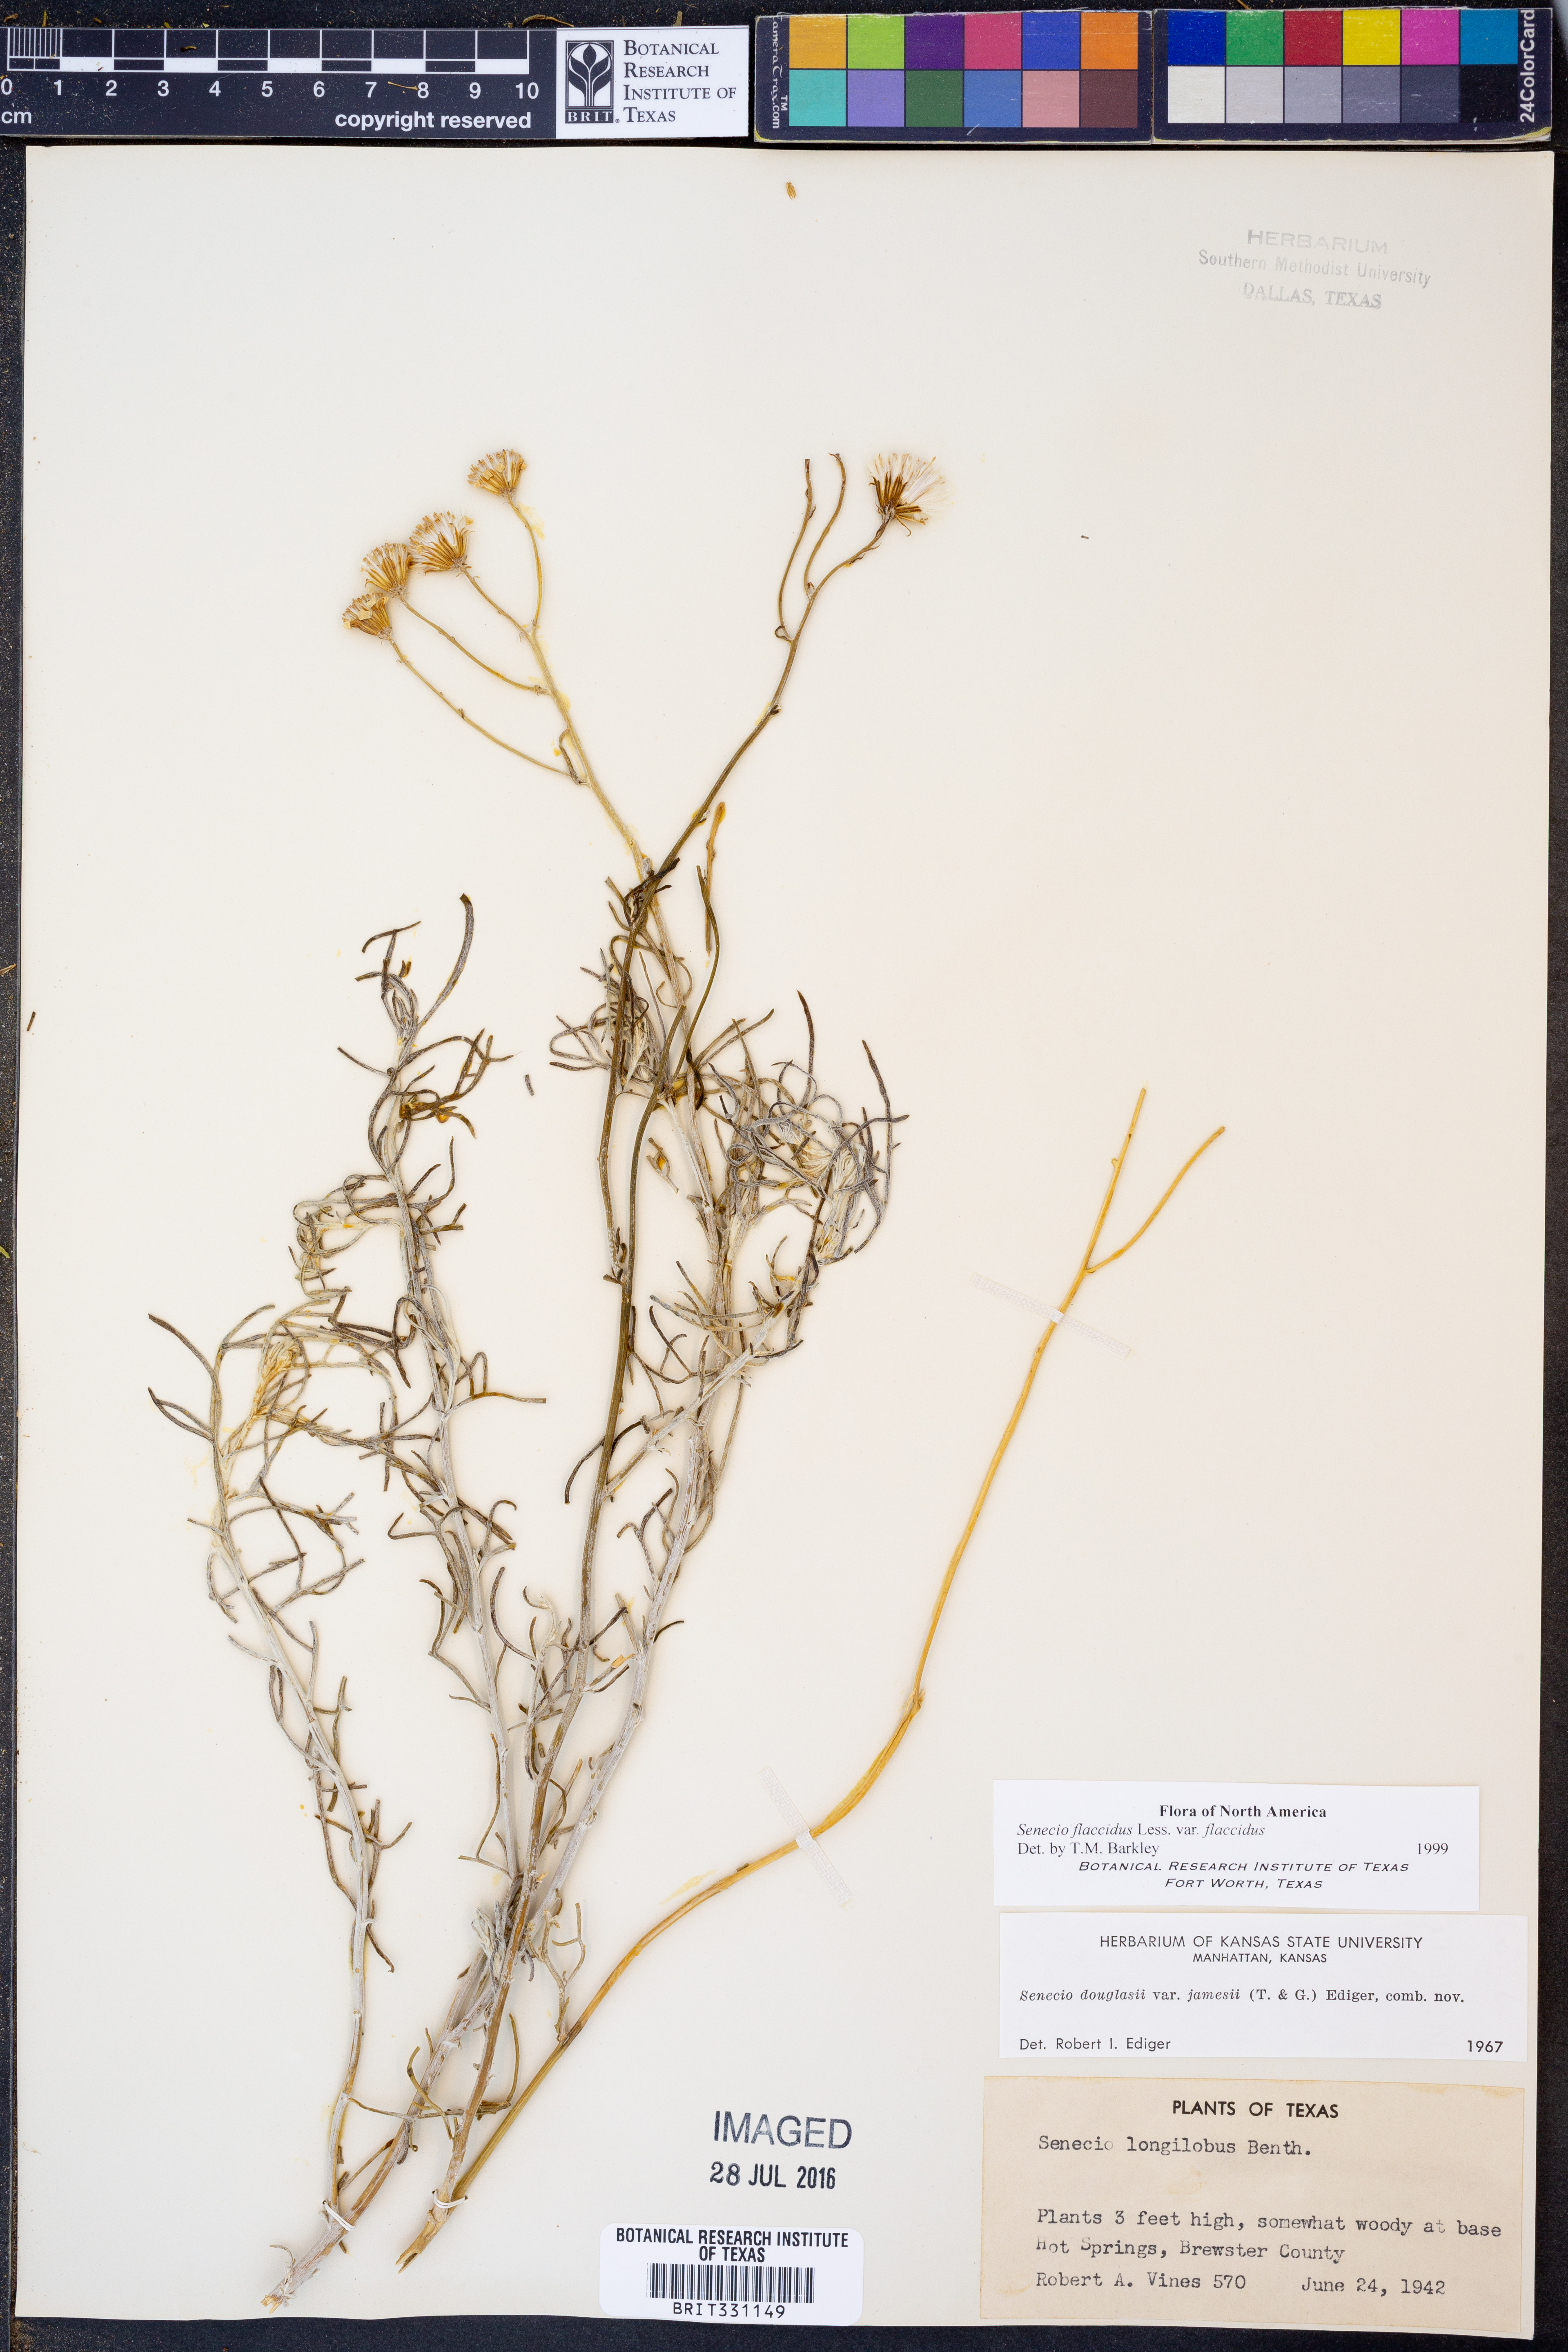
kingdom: Plantae
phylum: Tracheophyta
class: Magnoliopsida
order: Asterales
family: Asteraceae
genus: Senecio
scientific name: Senecio flaccidus
